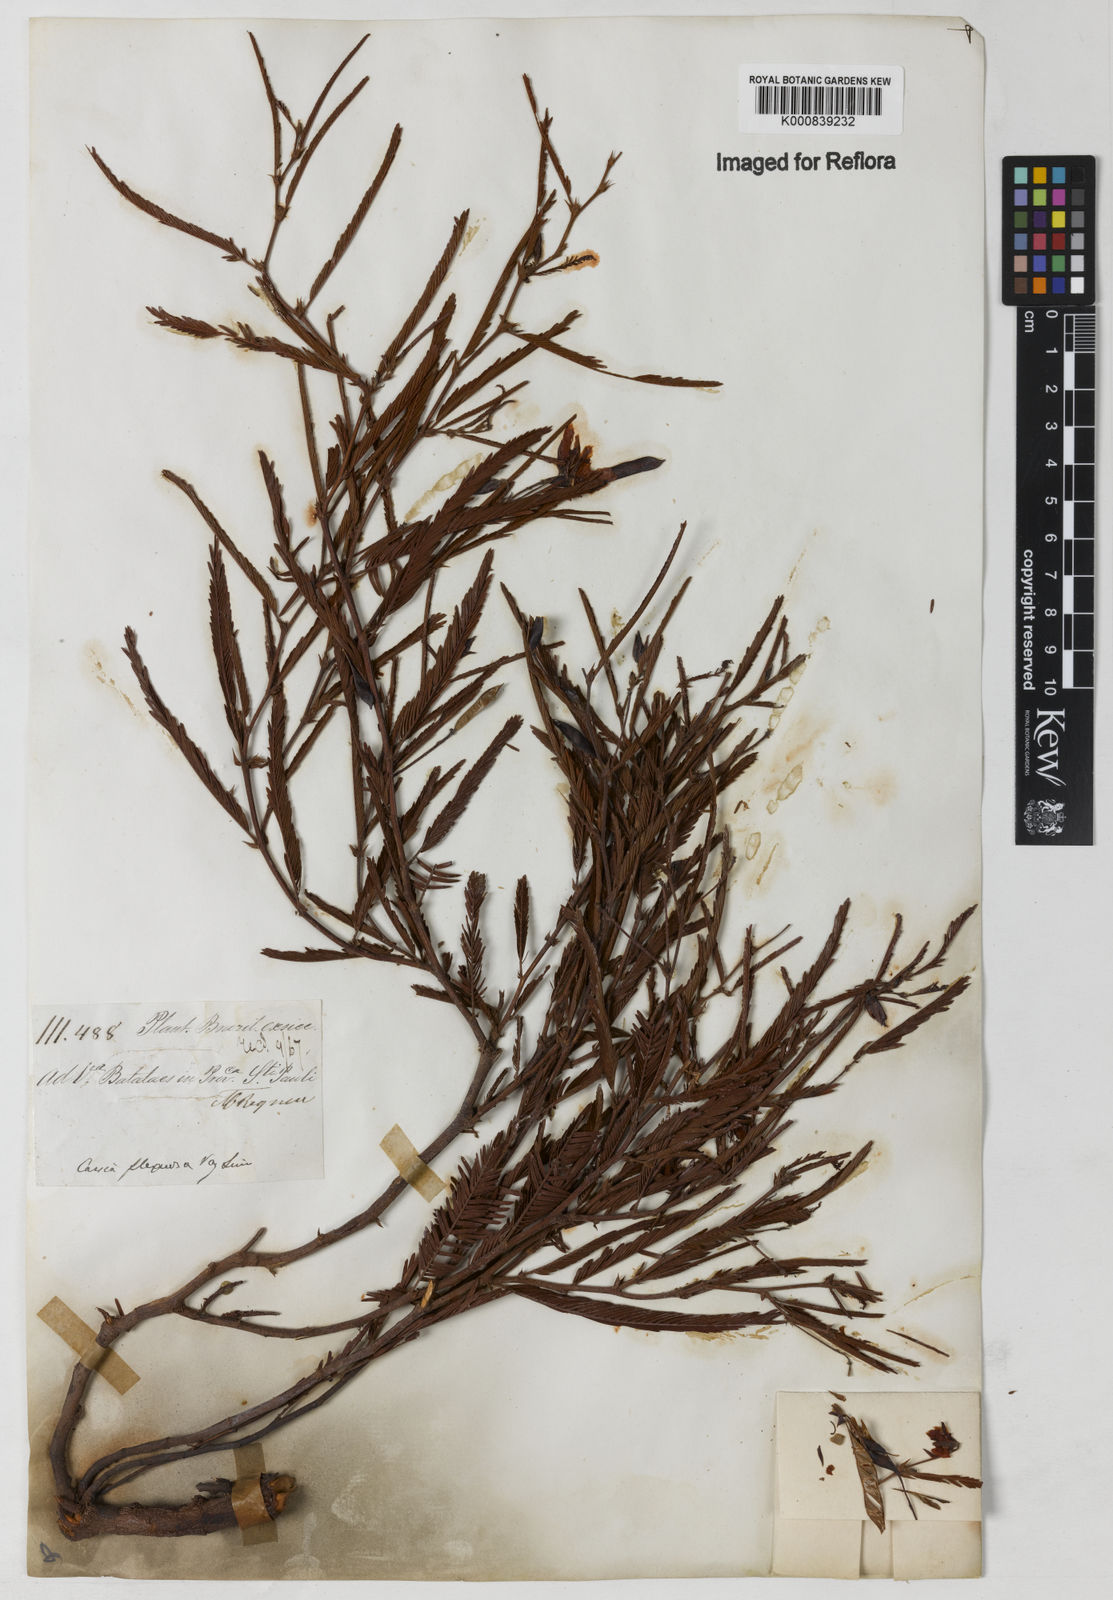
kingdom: Plantae
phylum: Tracheophyta
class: Magnoliopsida
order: Fabales
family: Fabaceae
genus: Chamaecrista
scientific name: Chamaecrista flexuosa
